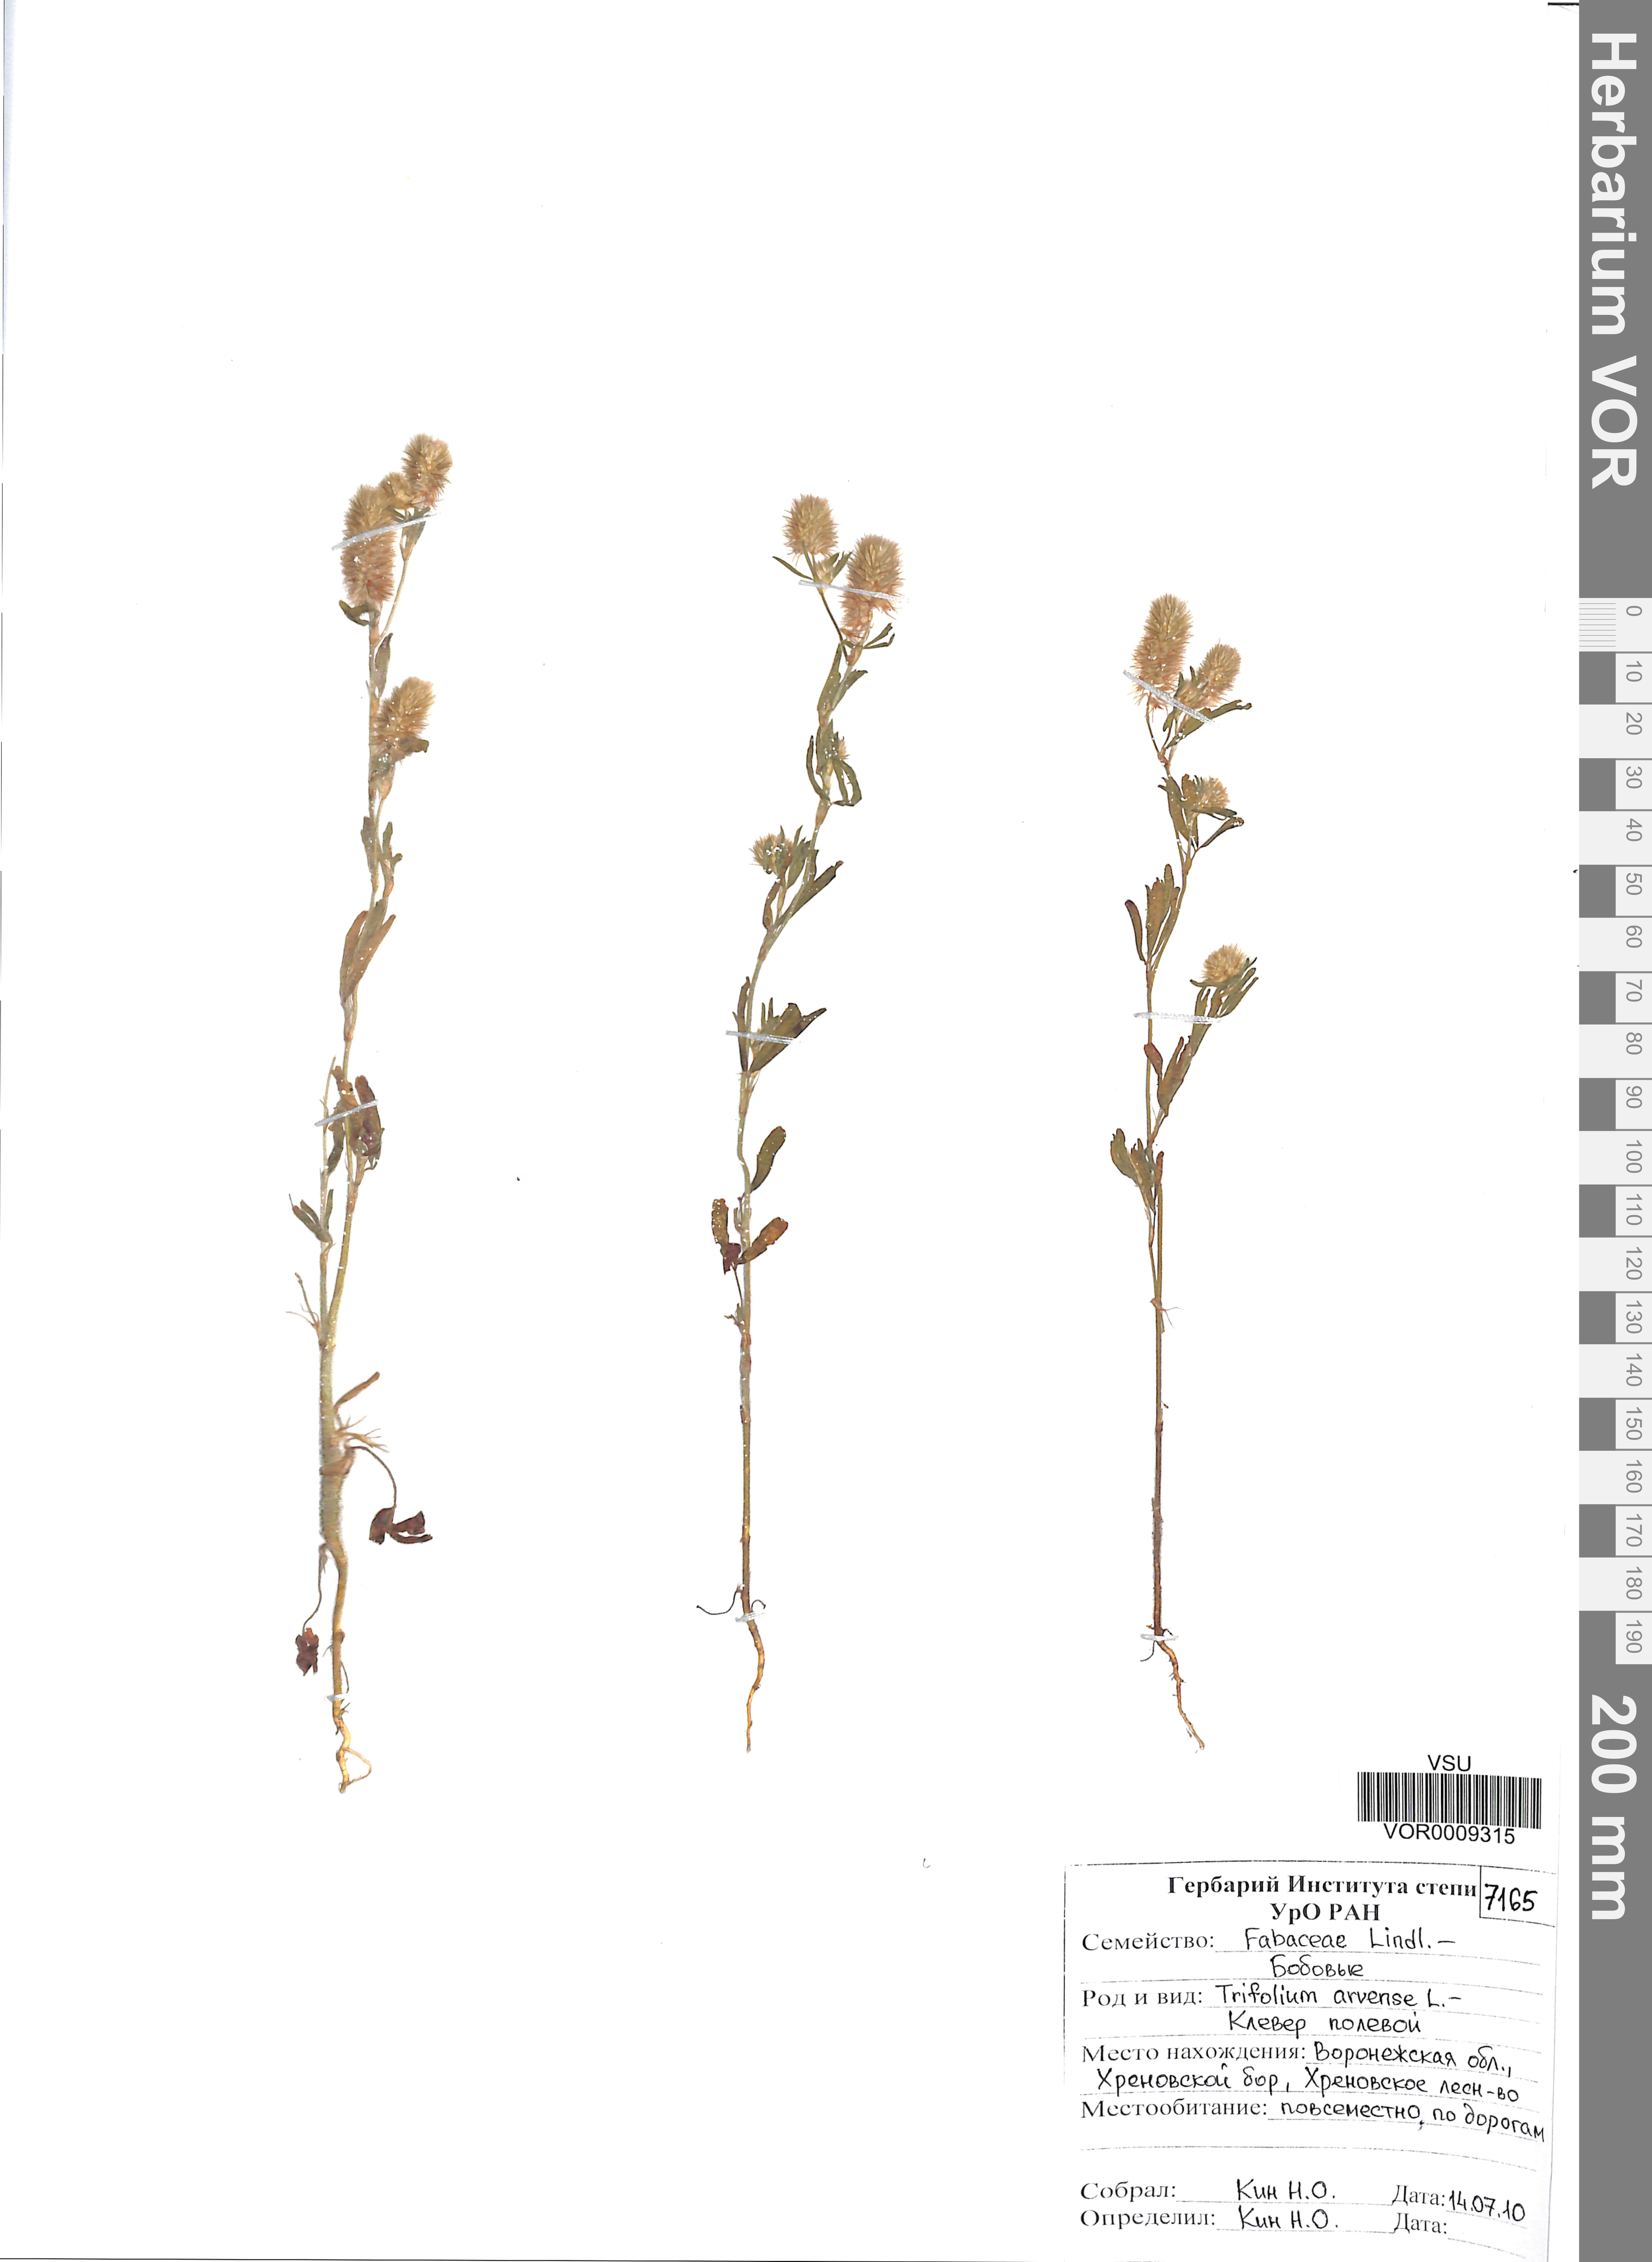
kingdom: Plantae
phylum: Tracheophyta
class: Magnoliopsida
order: Fabales
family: Fabaceae
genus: Trifolium
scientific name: Trifolium arvense
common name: Hare's-foot clover
